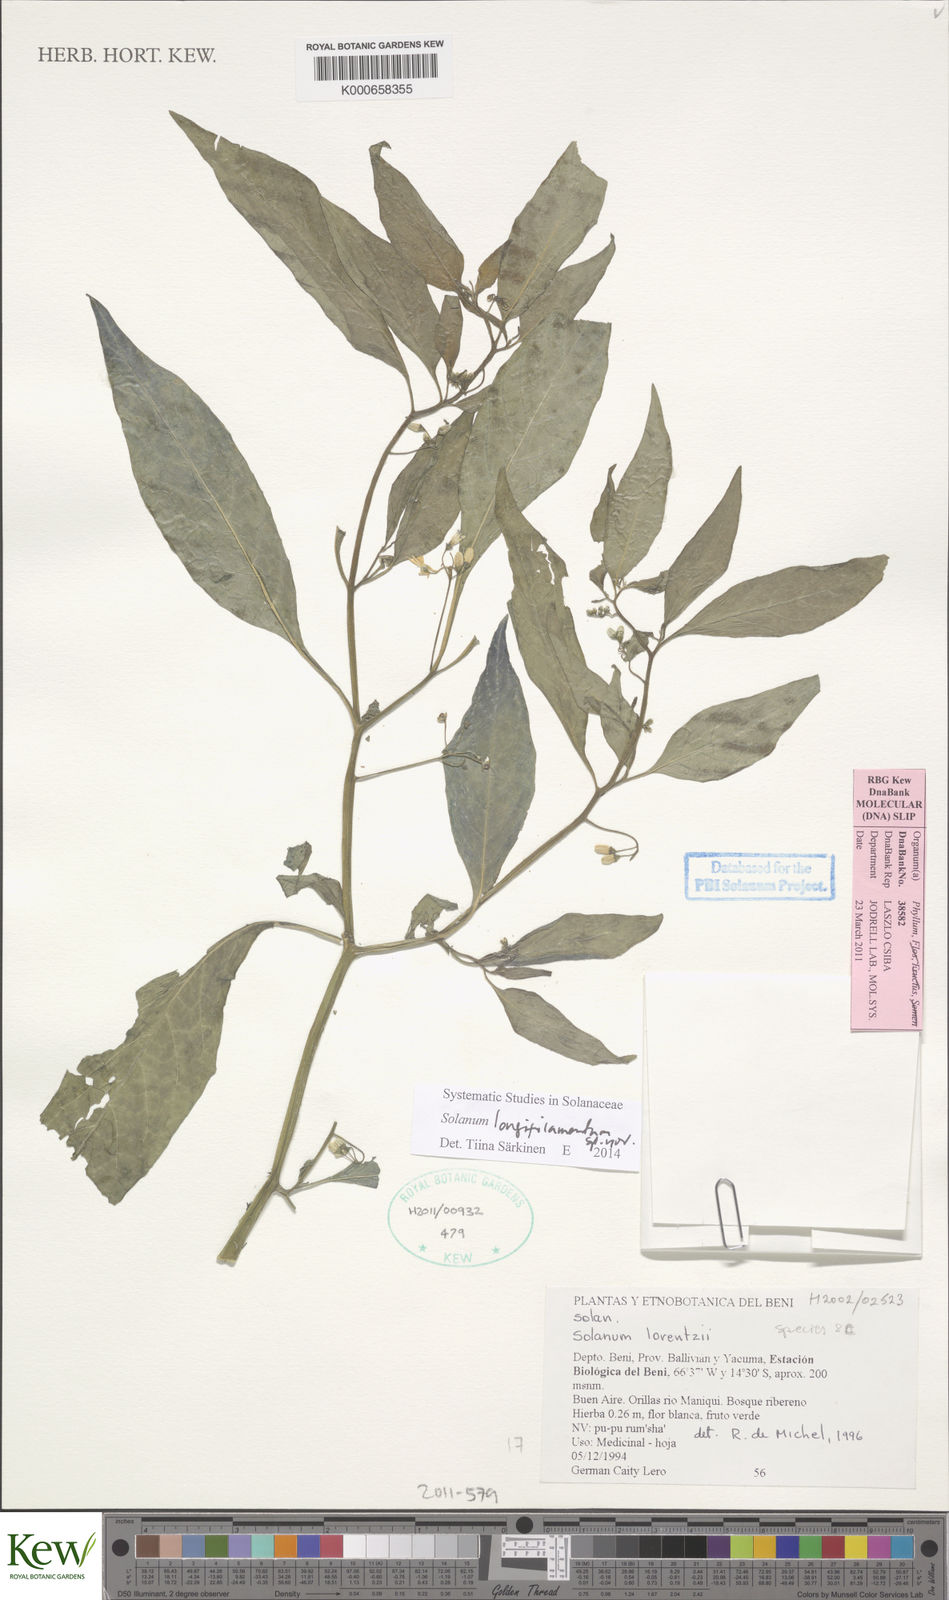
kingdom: Plantae
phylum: Tracheophyta
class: Magnoliopsida
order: Solanales
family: Solanaceae
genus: Solanum
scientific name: Solanum macrotonum
